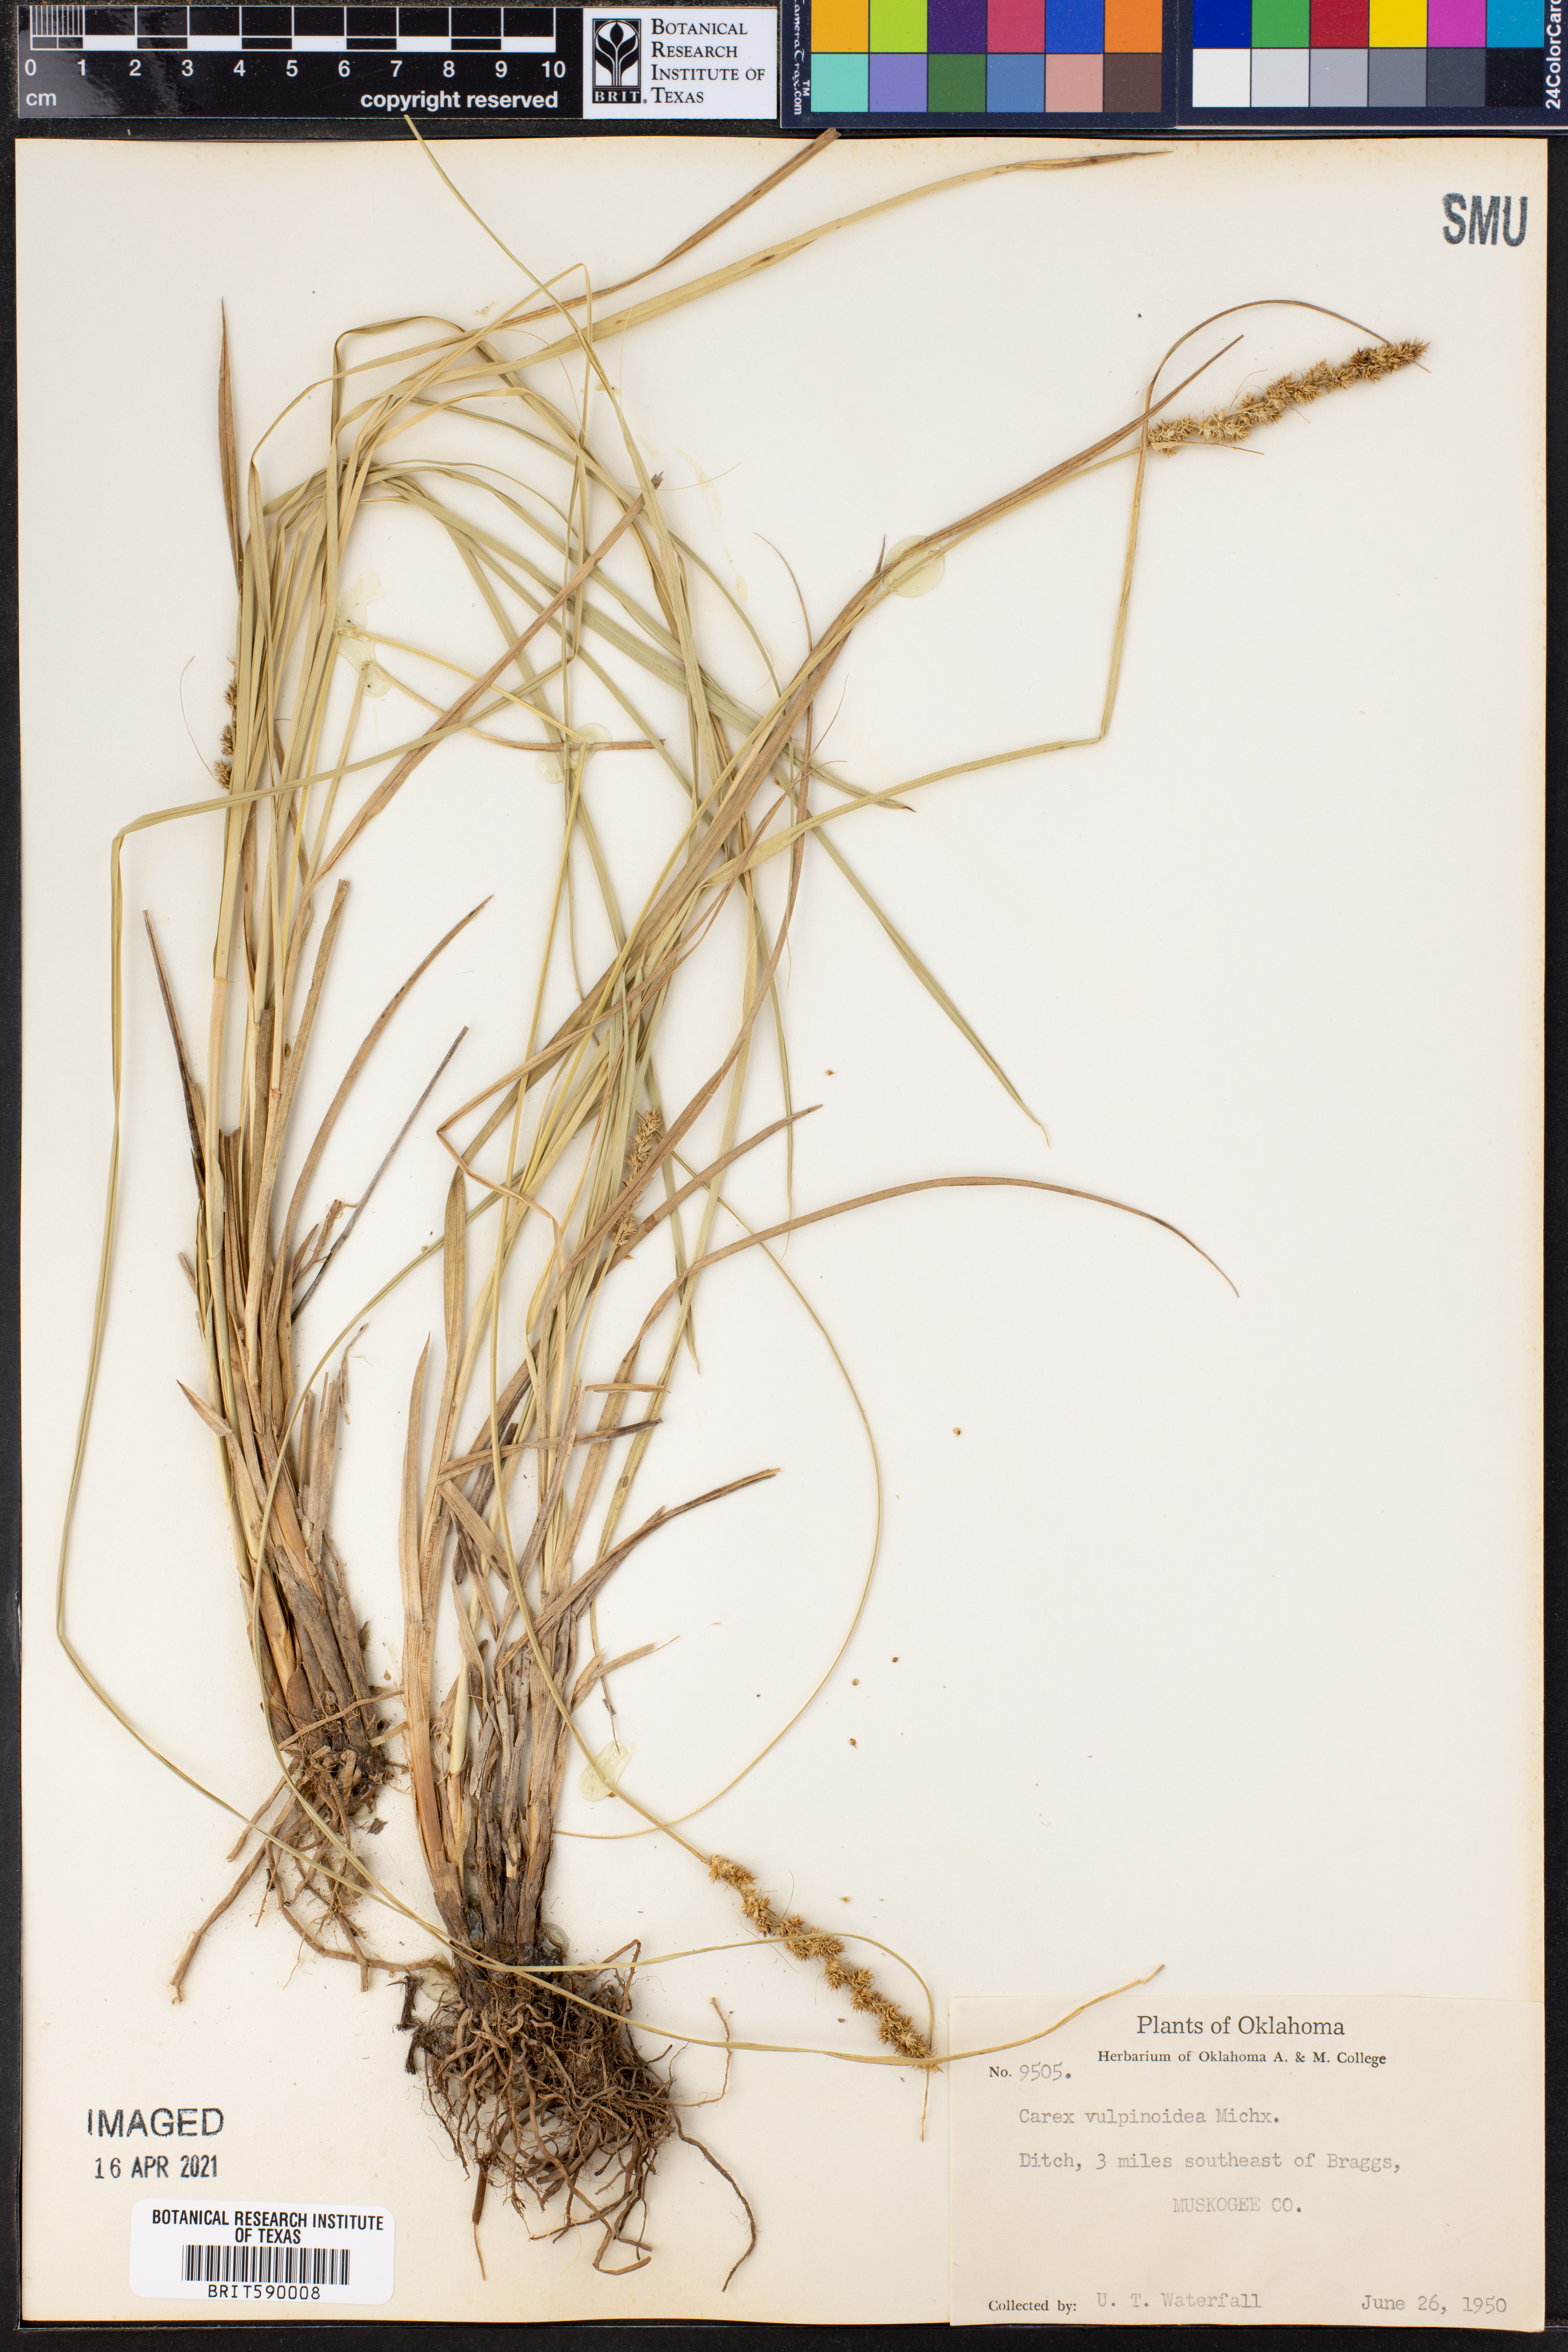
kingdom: Plantae
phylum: Tracheophyta
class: Liliopsida
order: Poales
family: Cyperaceae
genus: Carex
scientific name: Carex vulpinoidea
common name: American fox-sedge
